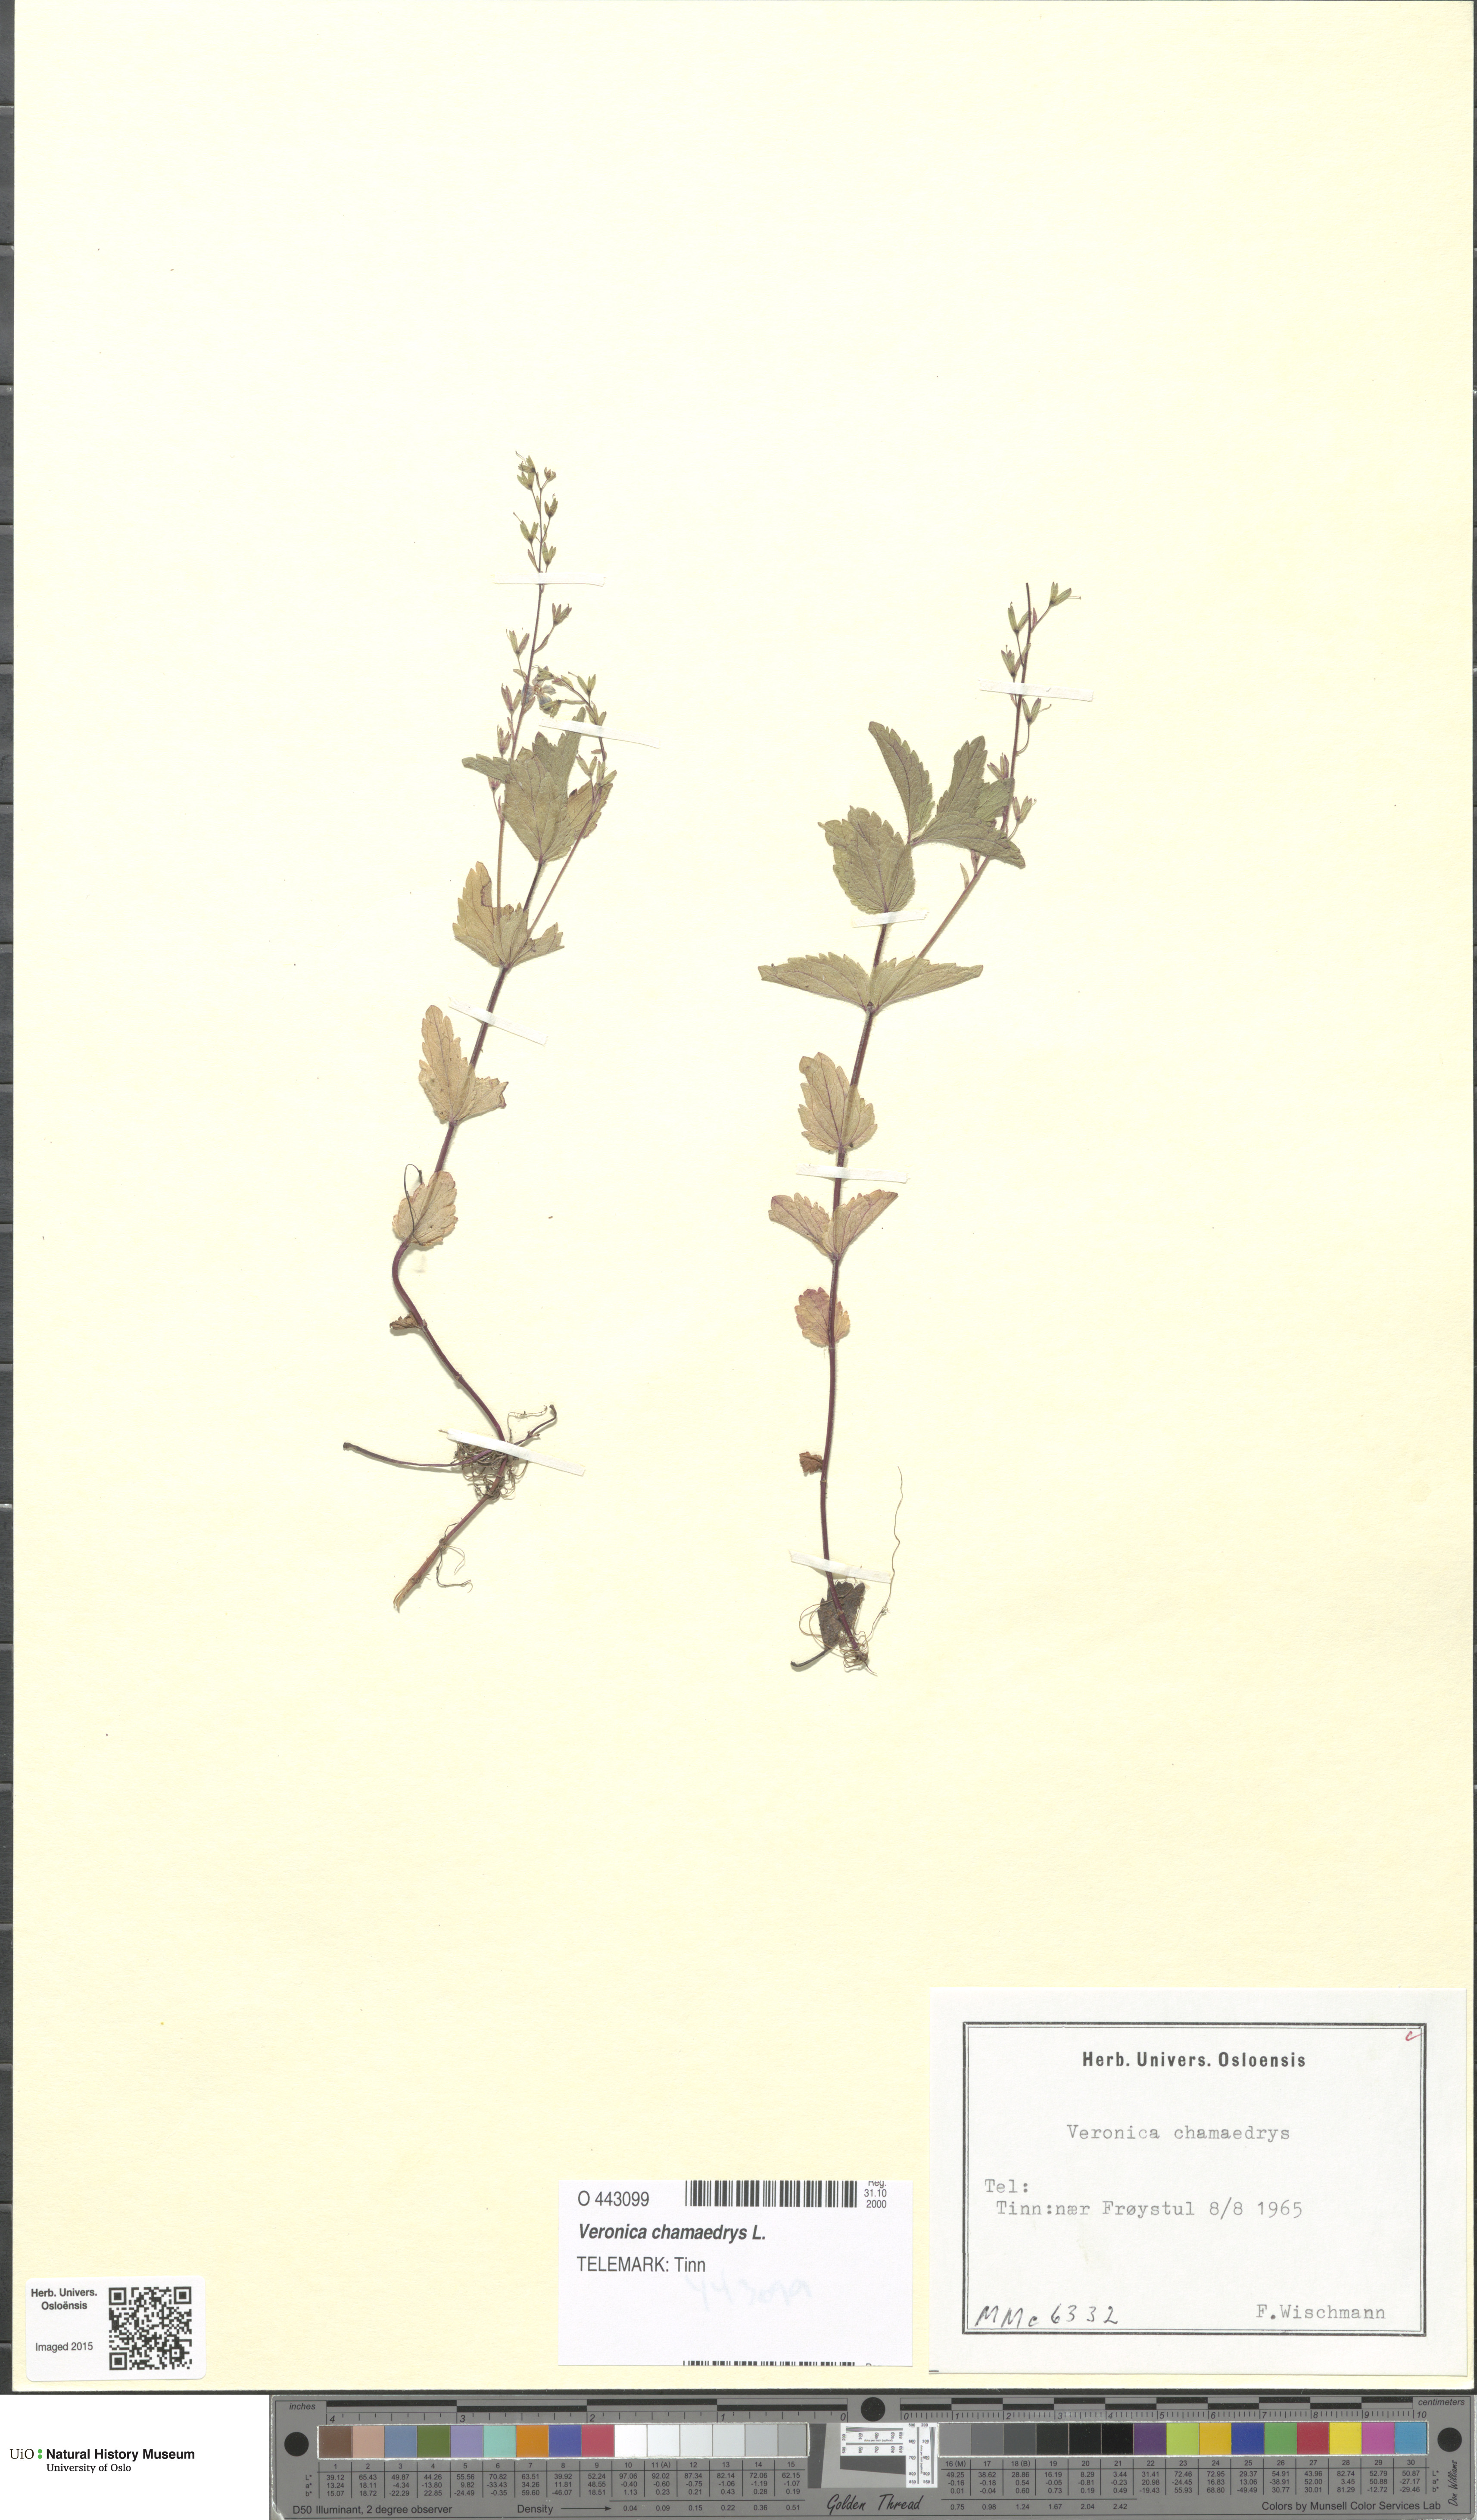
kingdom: Plantae
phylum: Tracheophyta
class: Magnoliopsida
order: Lamiales
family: Plantaginaceae
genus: Veronica
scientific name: Veronica chamaedrys
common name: Germander speedwell
